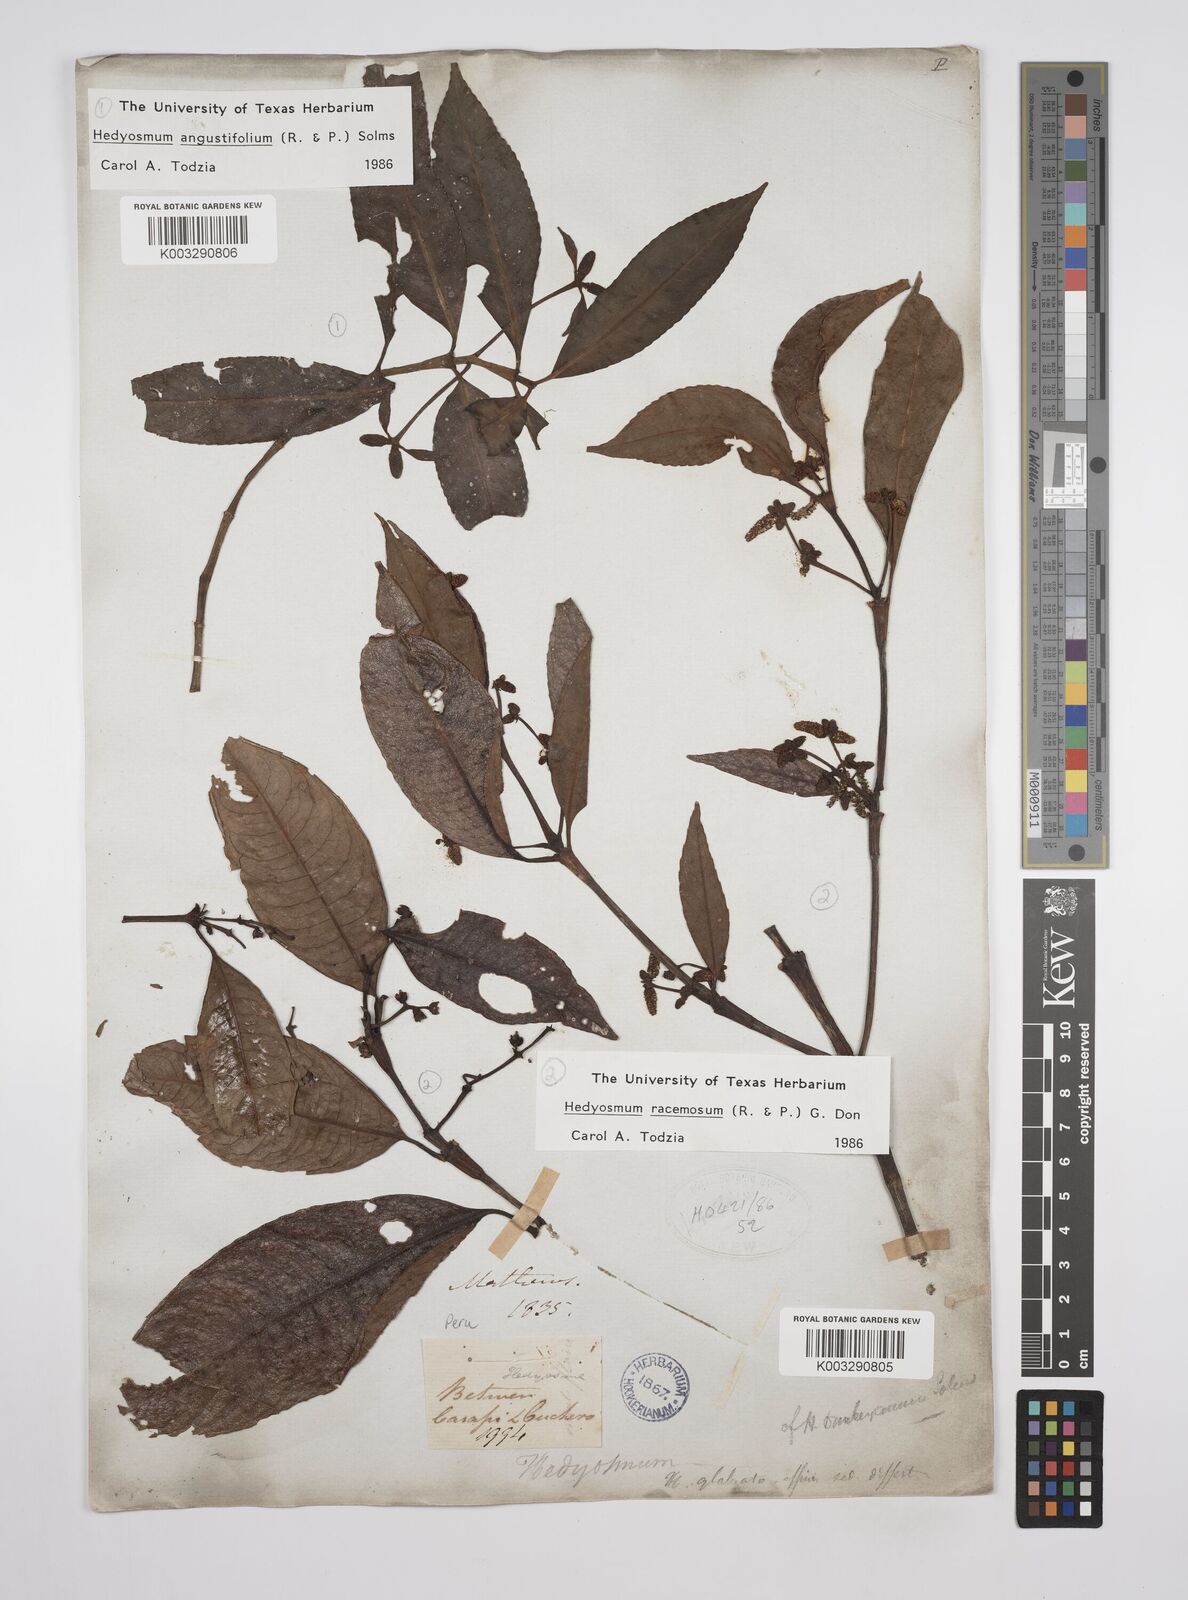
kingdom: Plantae
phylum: Tracheophyta
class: Magnoliopsida
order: Chloranthales
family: Chloranthaceae
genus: Hedyosmum
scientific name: Hedyosmum angustifolium
